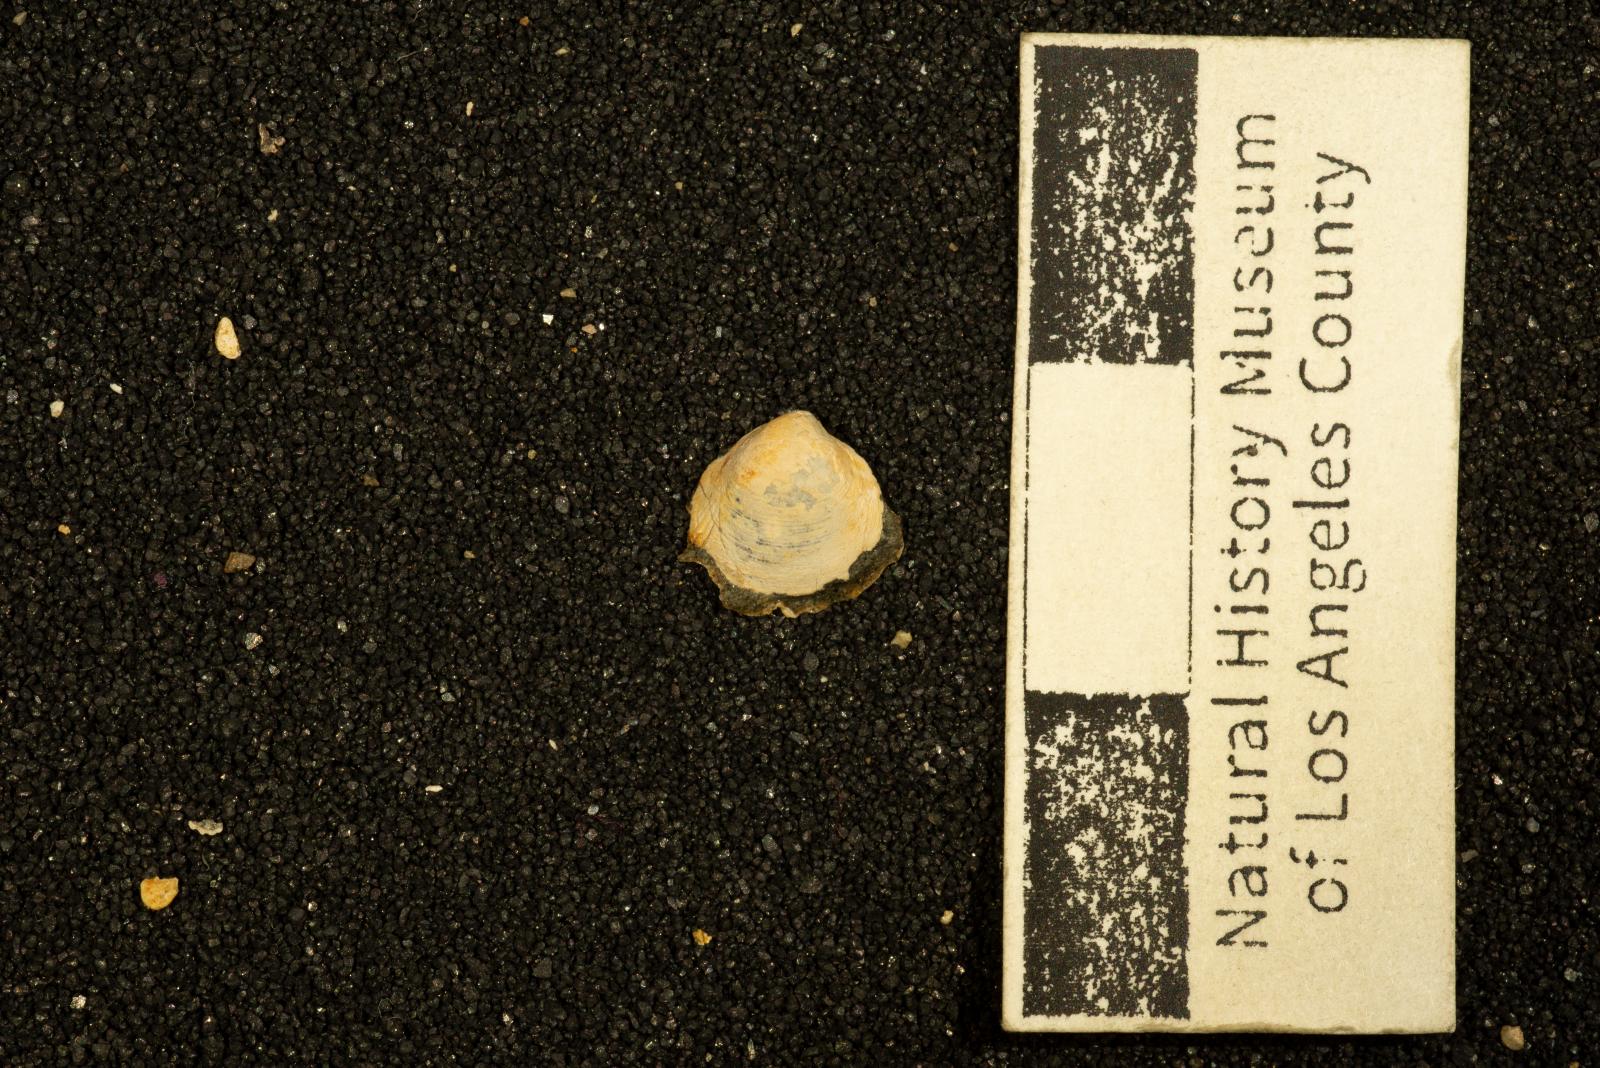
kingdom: Animalia
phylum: Mollusca
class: Bivalvia
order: Cardiida
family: Cardiidae
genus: Protocardia
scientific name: Protocardia Cardium placerensis
